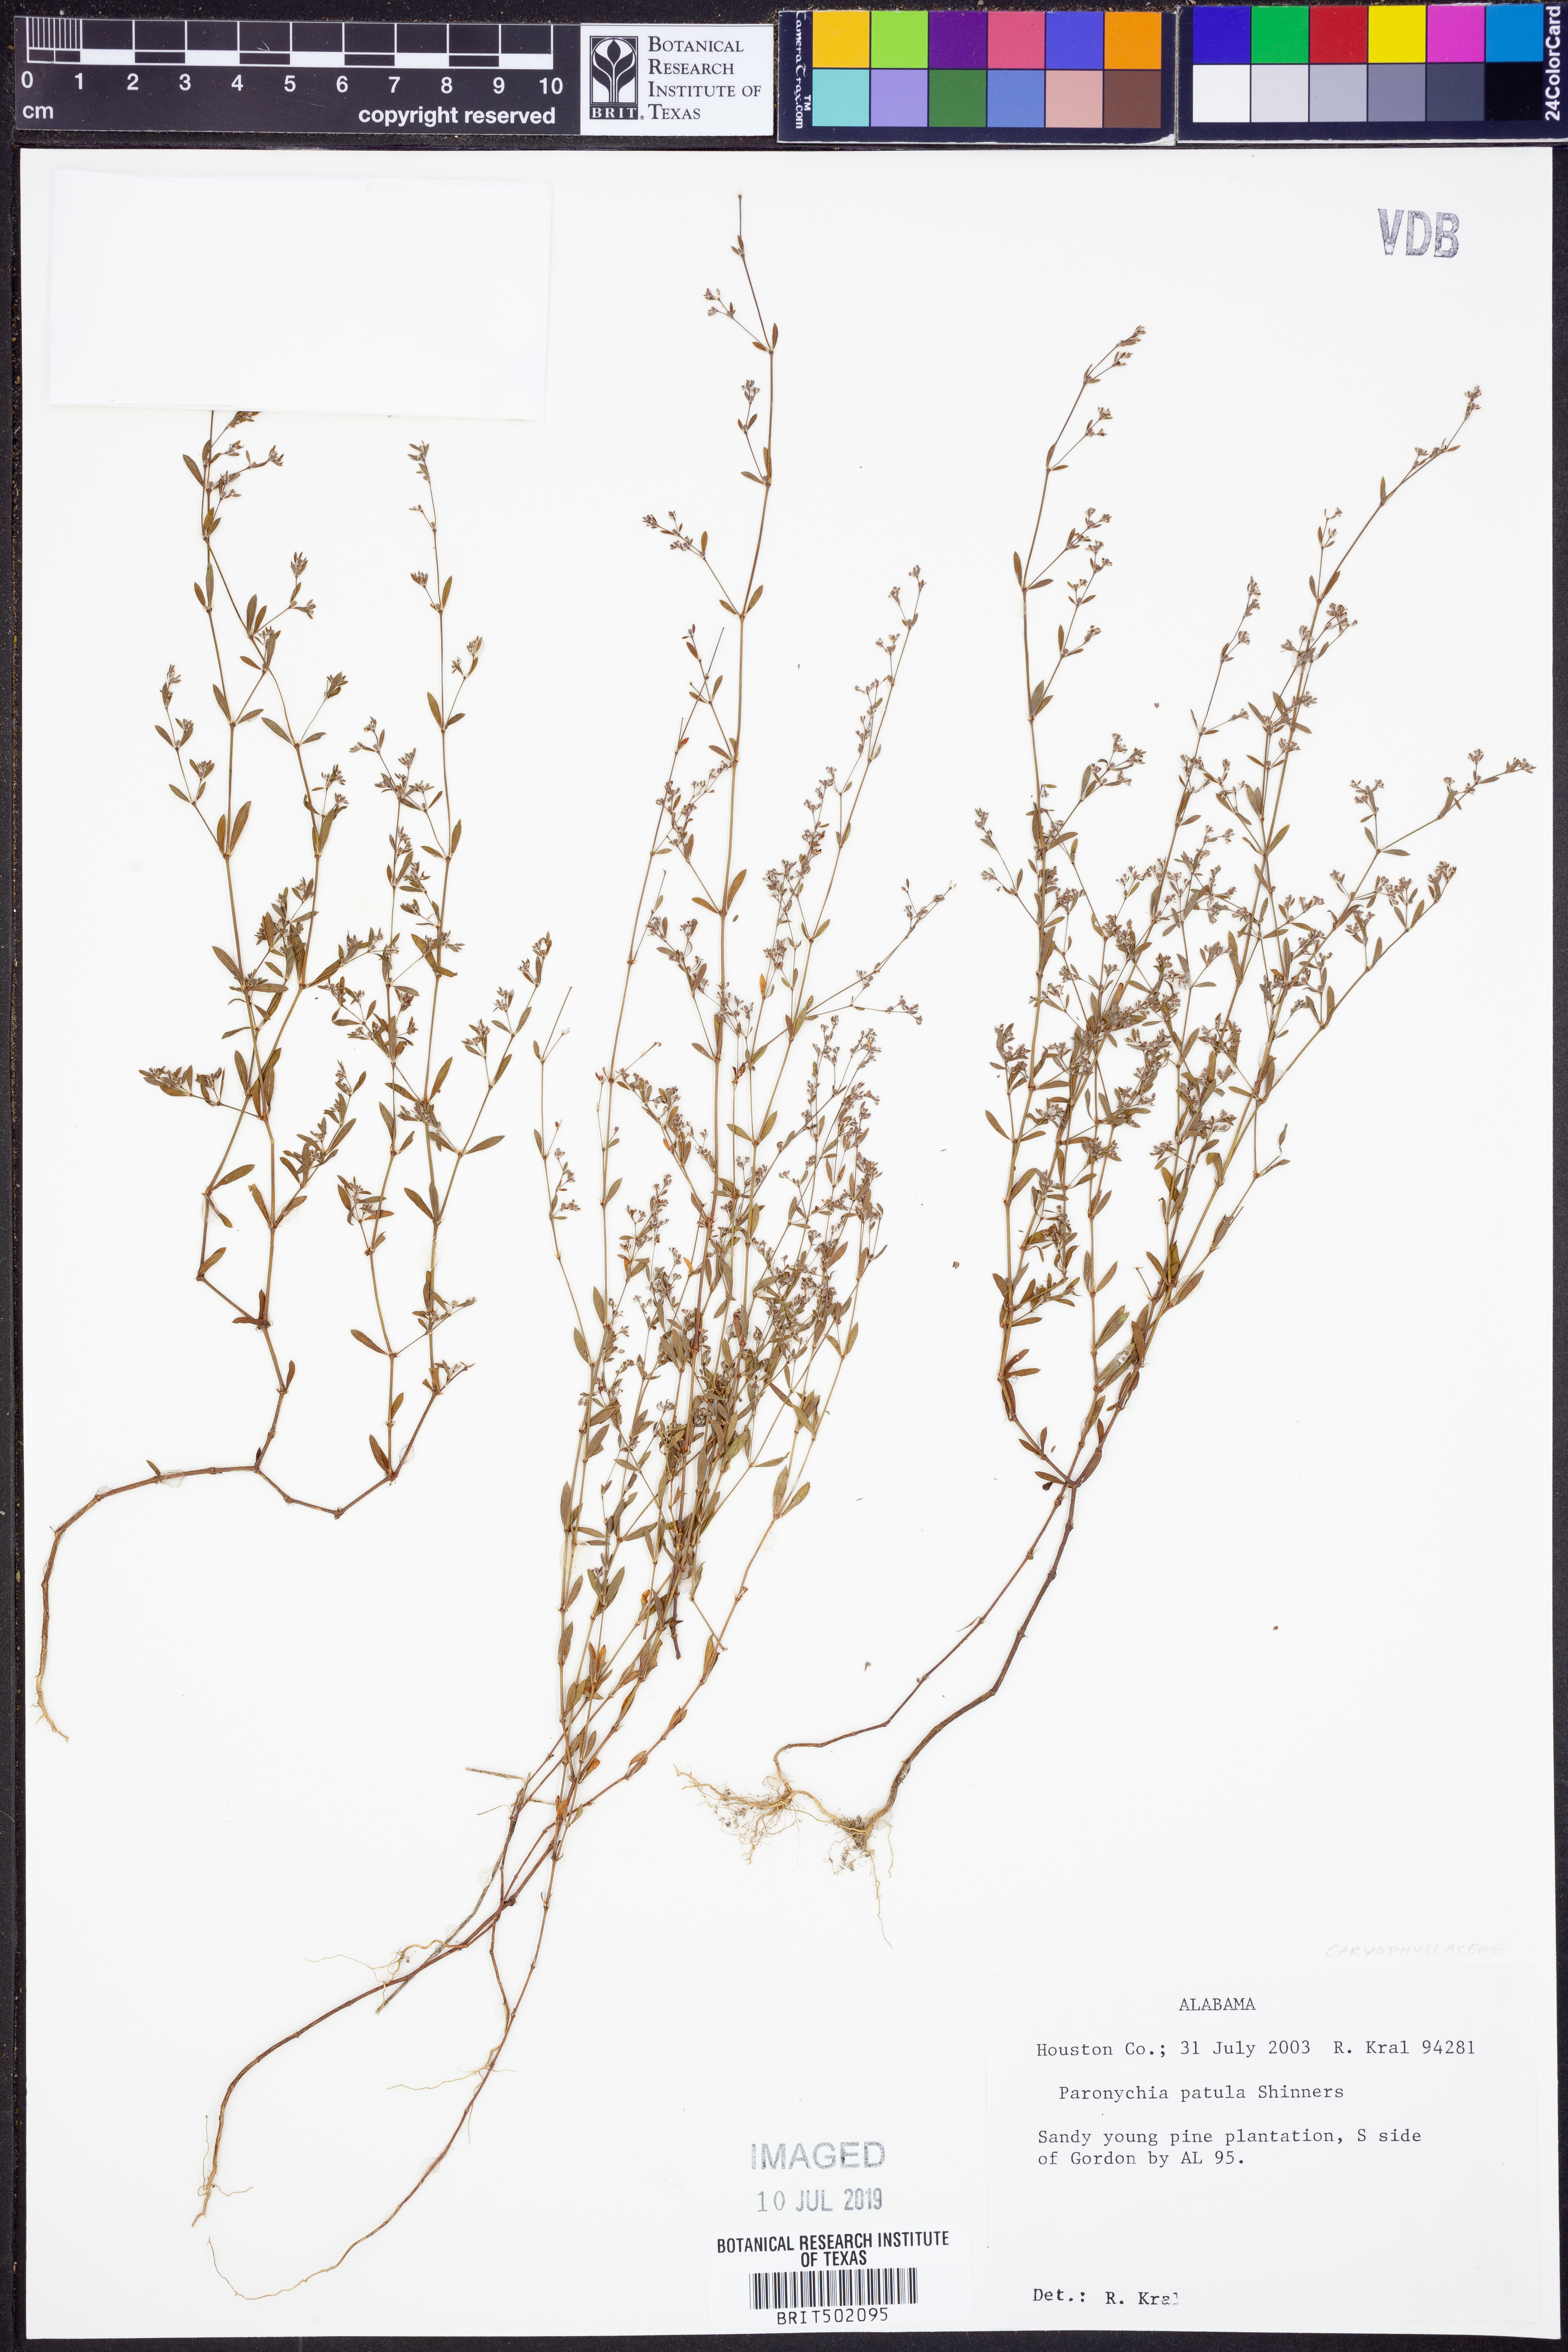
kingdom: Plantae
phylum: Tracheophyta
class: Magnoliopsida
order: Caryophyllales
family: Caryophyllaceae
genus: Paronychia
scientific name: Paronychia patula
